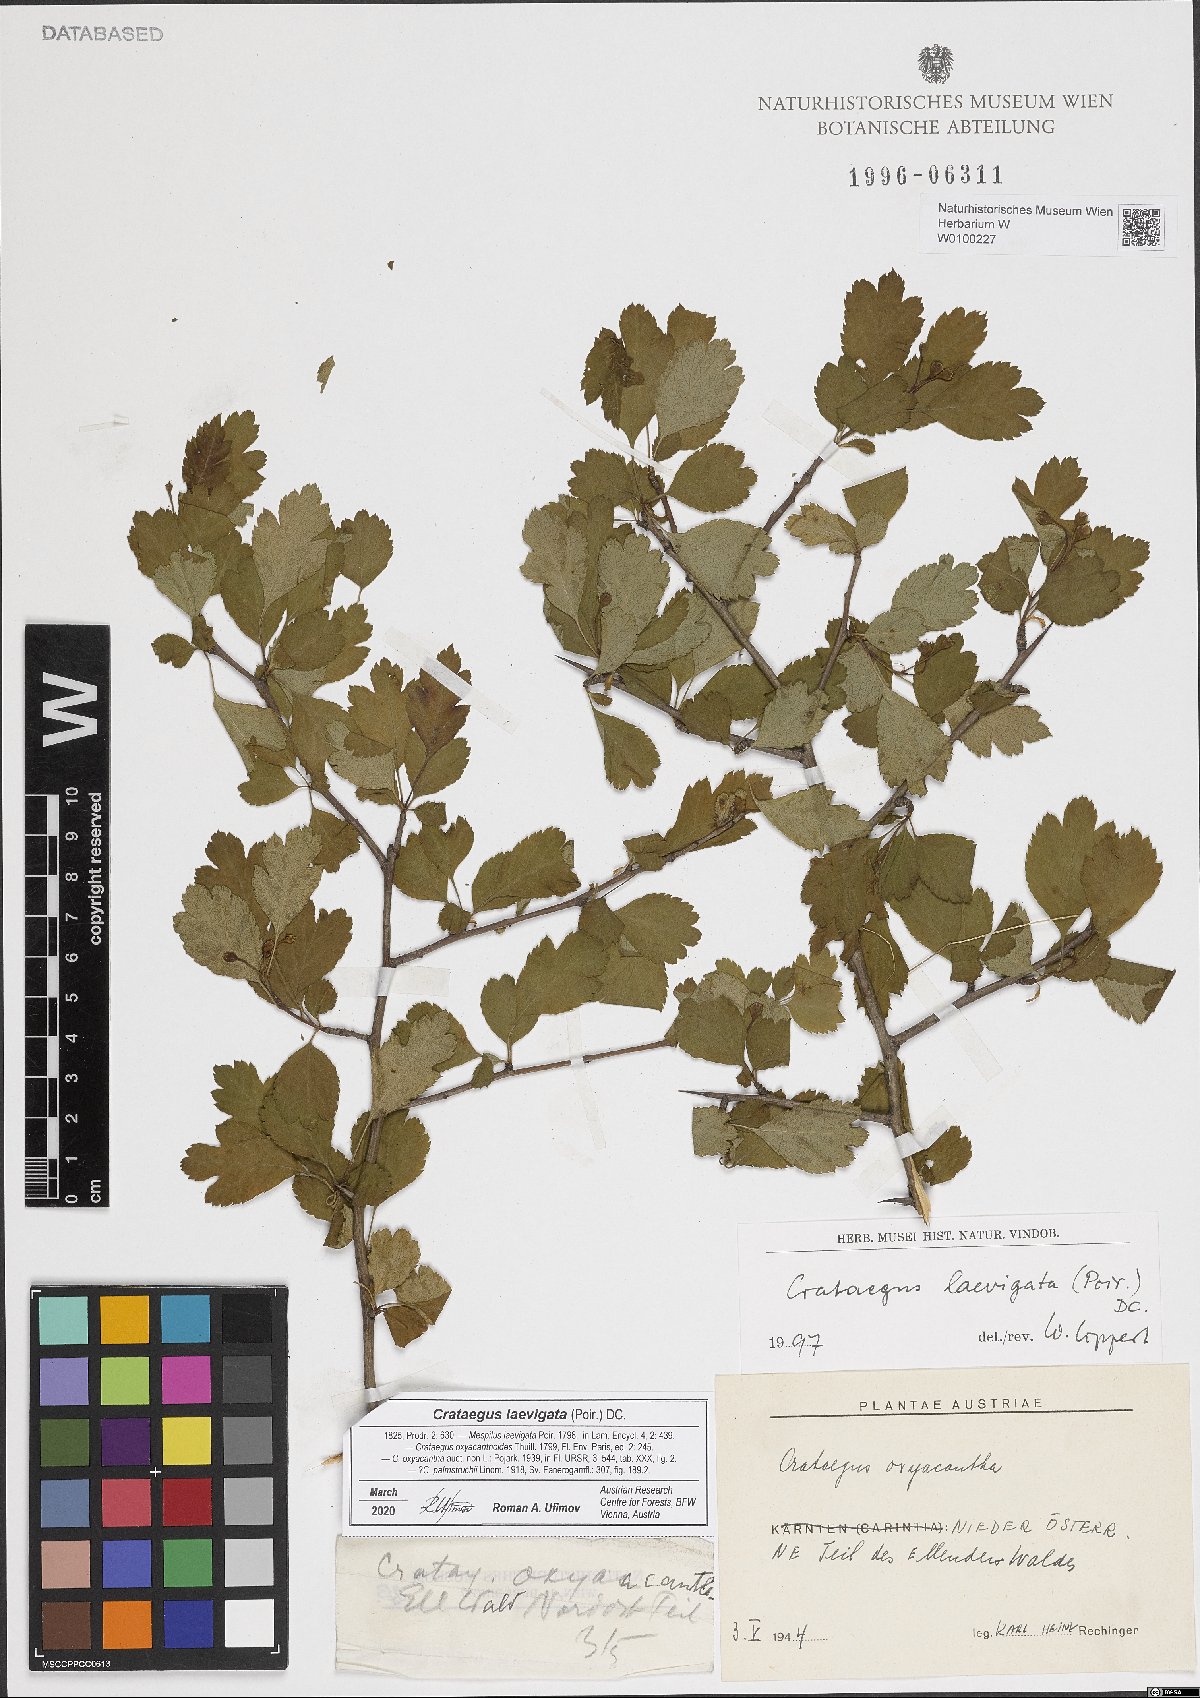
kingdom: Plantae
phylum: Tracheophyta
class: Magnoliopsida
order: Rosales
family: Rosaceae
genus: Crataegus
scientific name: Crataegus laevigata
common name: Midland hawthorn
